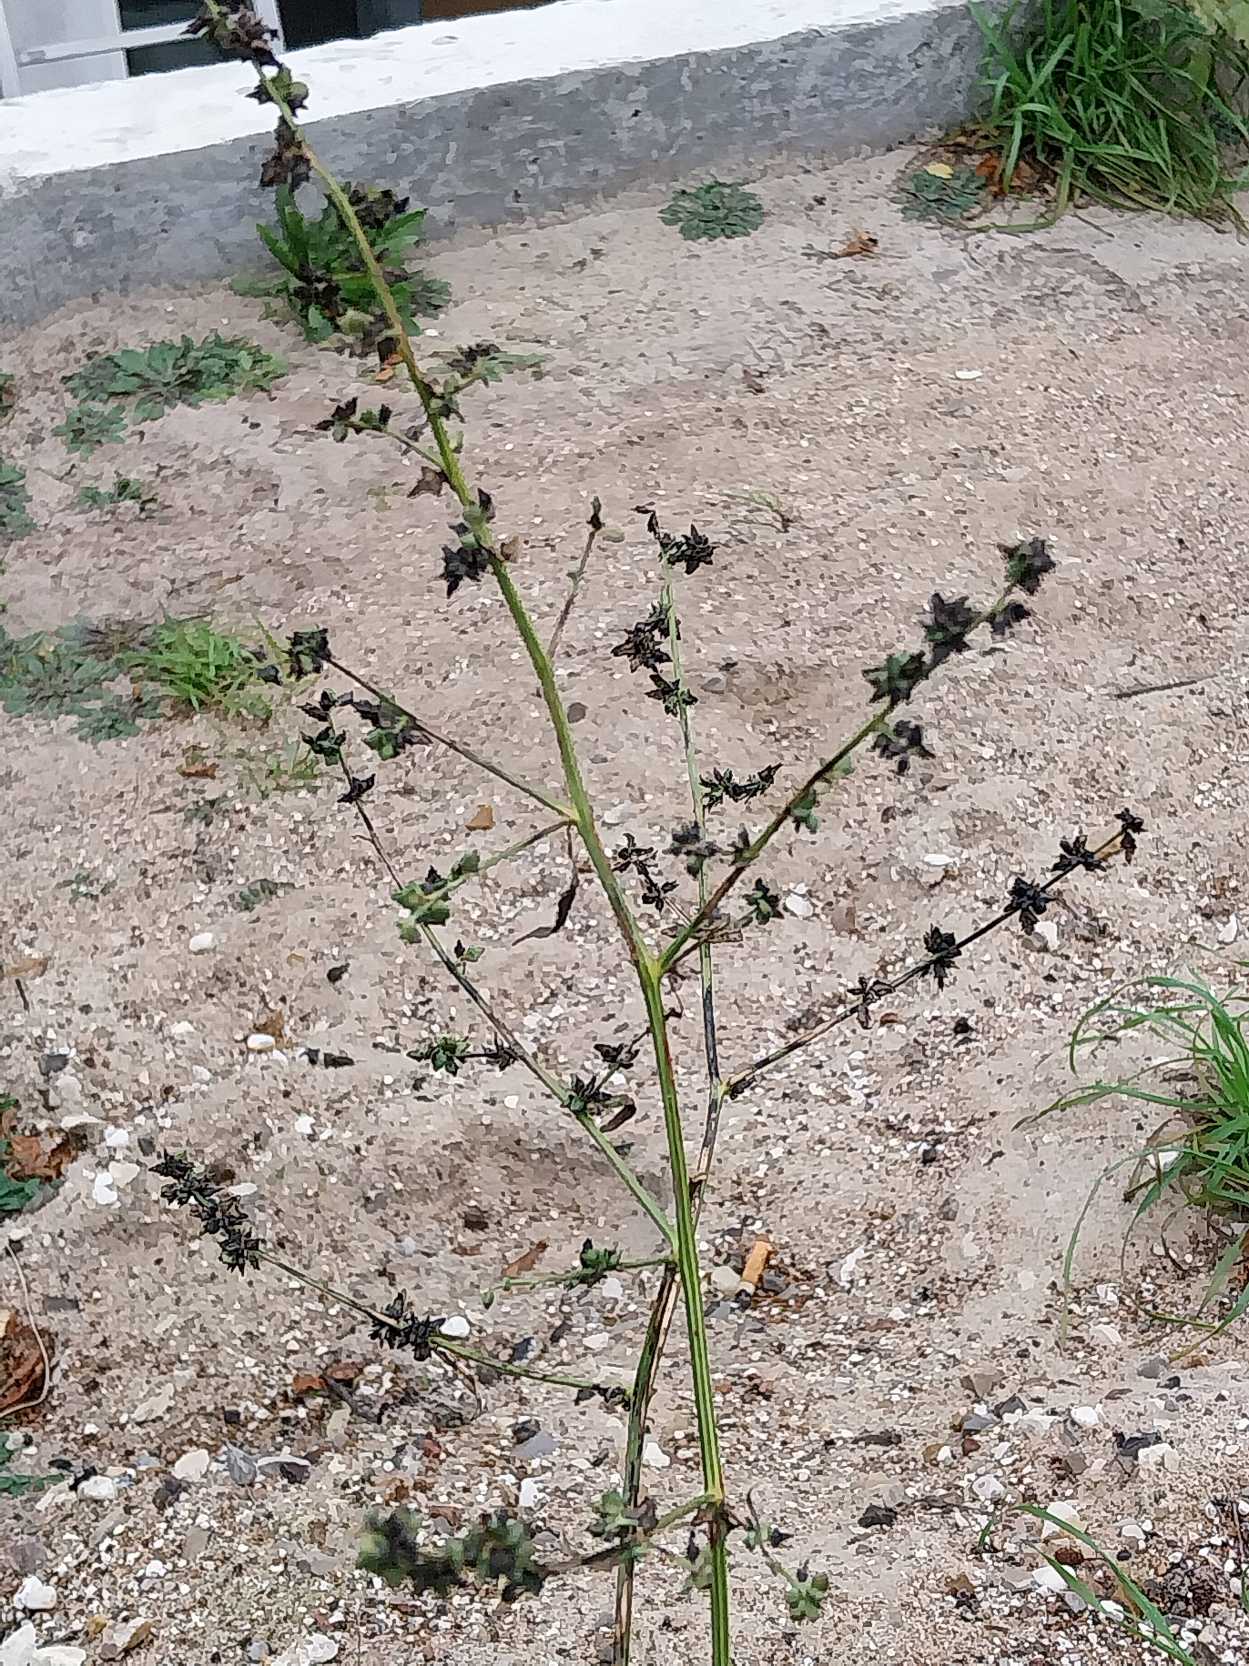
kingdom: Plantae
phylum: Tracheophyta
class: Magnoliopsida
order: Caryophyllales
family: Amaranthaceae
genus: Atriplex
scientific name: Atriplex patula
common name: Svine-mælde
